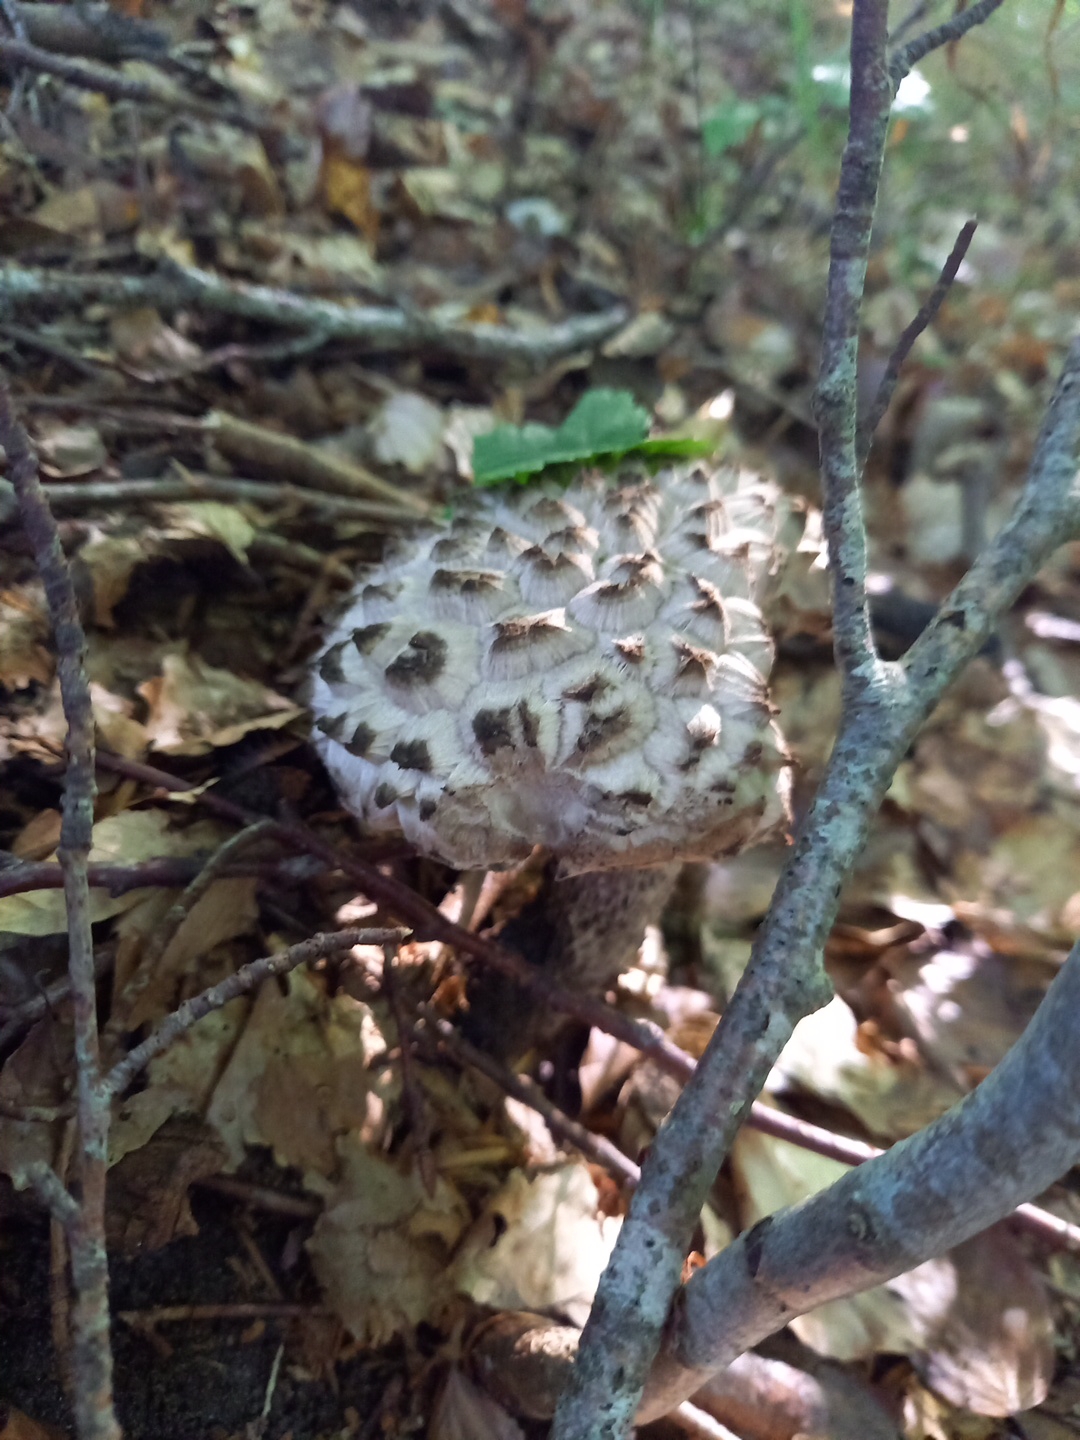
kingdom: Fungi
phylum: Basidiomycota
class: Agaricomycetes
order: Boletales
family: Boletaceae
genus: Strobilomyces
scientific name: Strobilomyces strobilaceus
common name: koglerørhat
